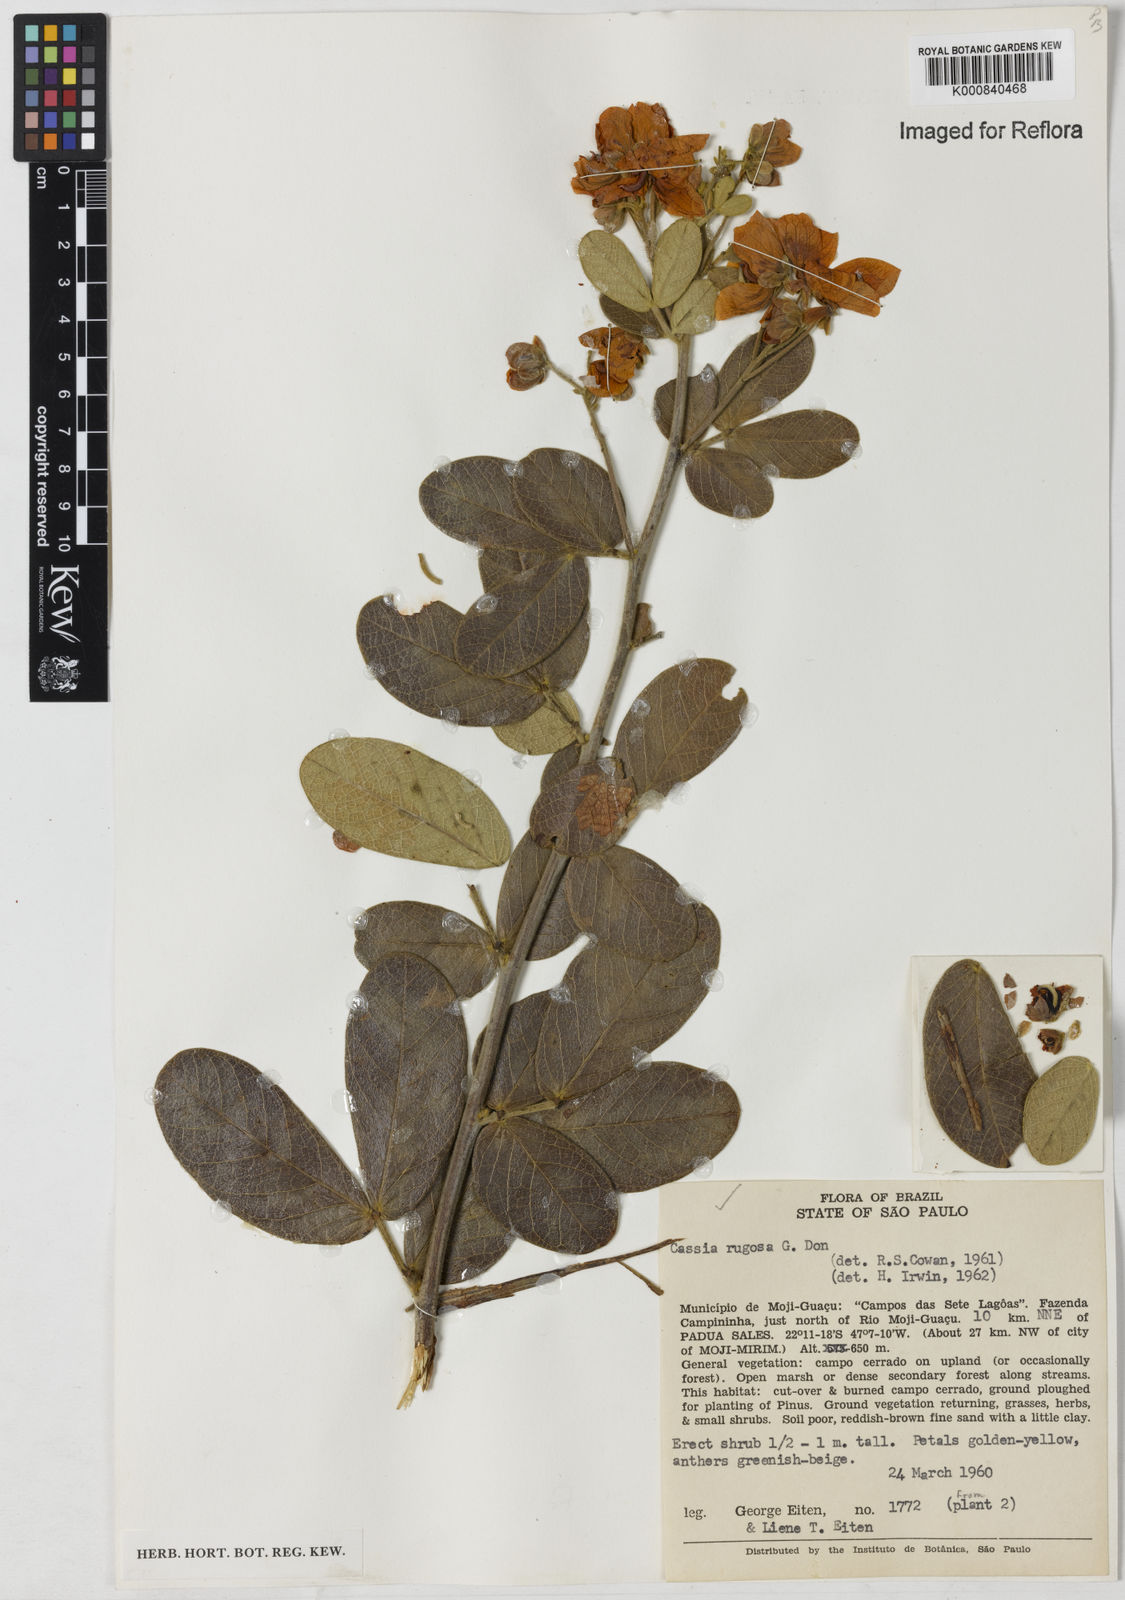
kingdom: Plantae
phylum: Tracheophyta
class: Magnoliopsida
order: Fabales
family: Fabaceae
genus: Senna
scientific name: Senna rugosa
